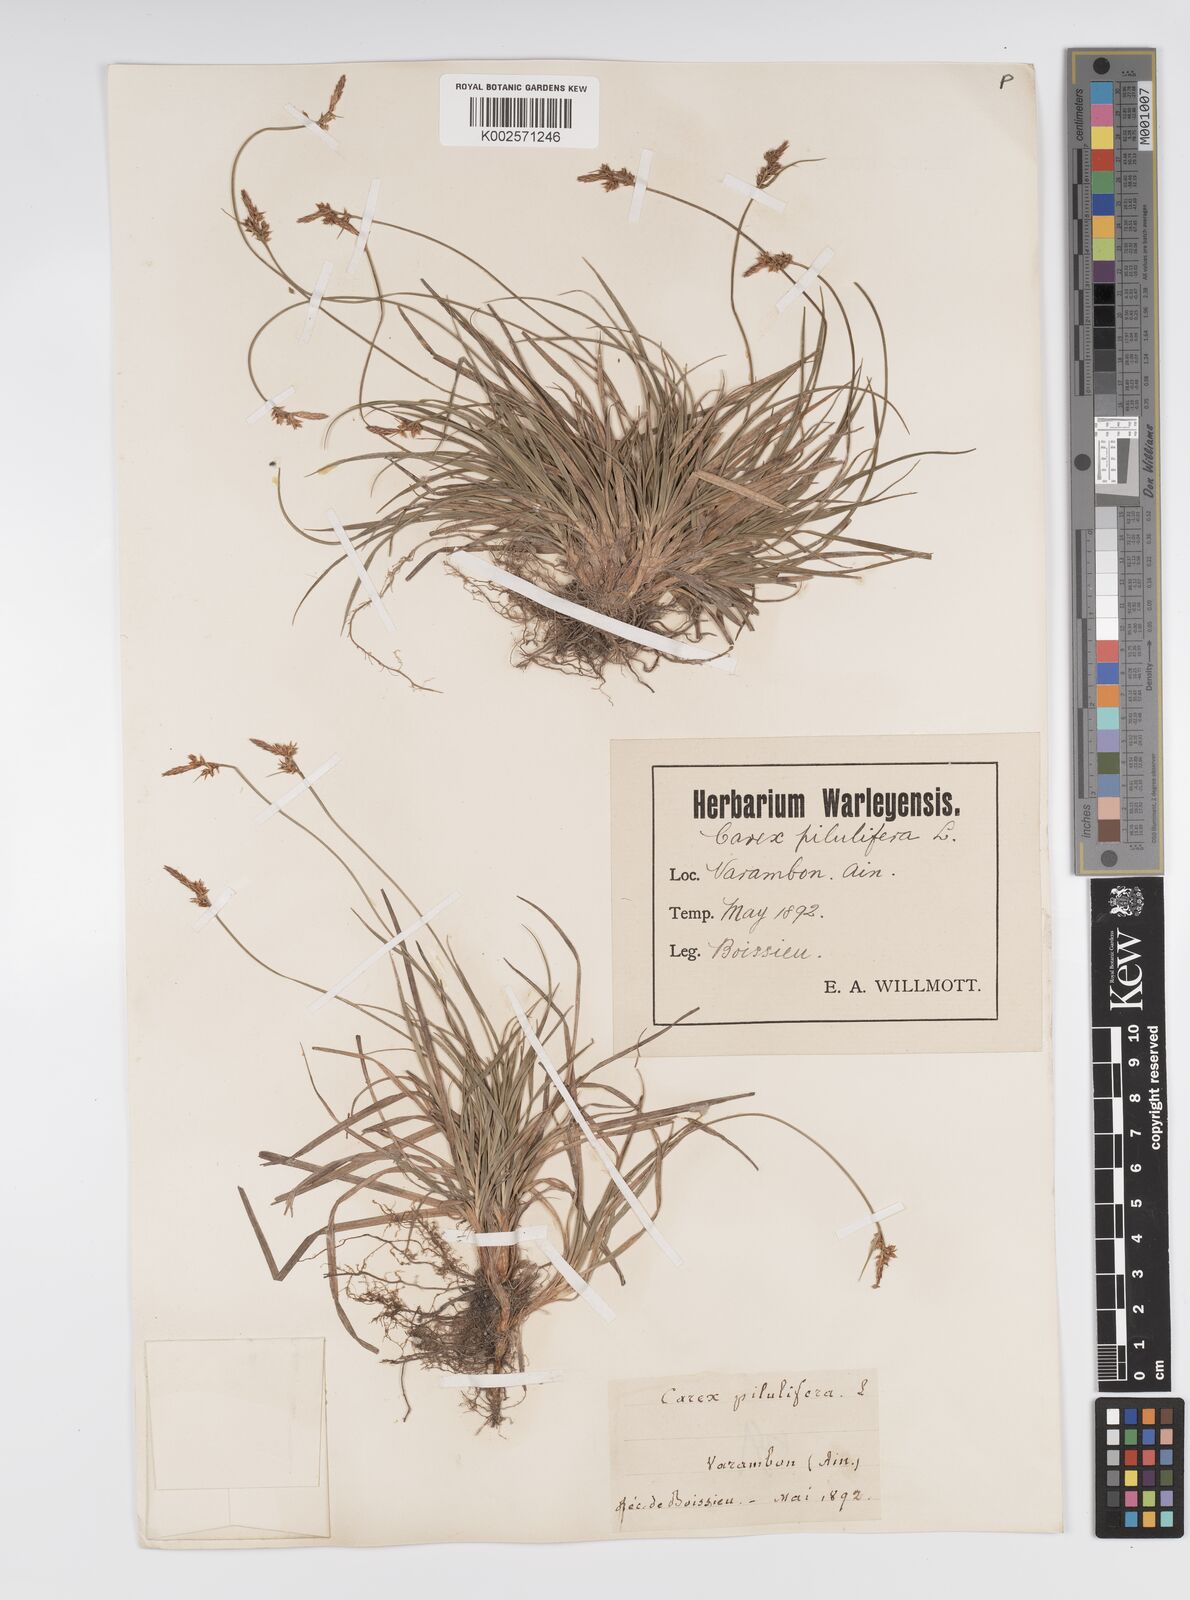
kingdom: Plantae
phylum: Tracheophyta
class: Liliopsida
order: Poales
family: Cyperaceae
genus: Carex
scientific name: Carex pilulifera
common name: Pill sedge
